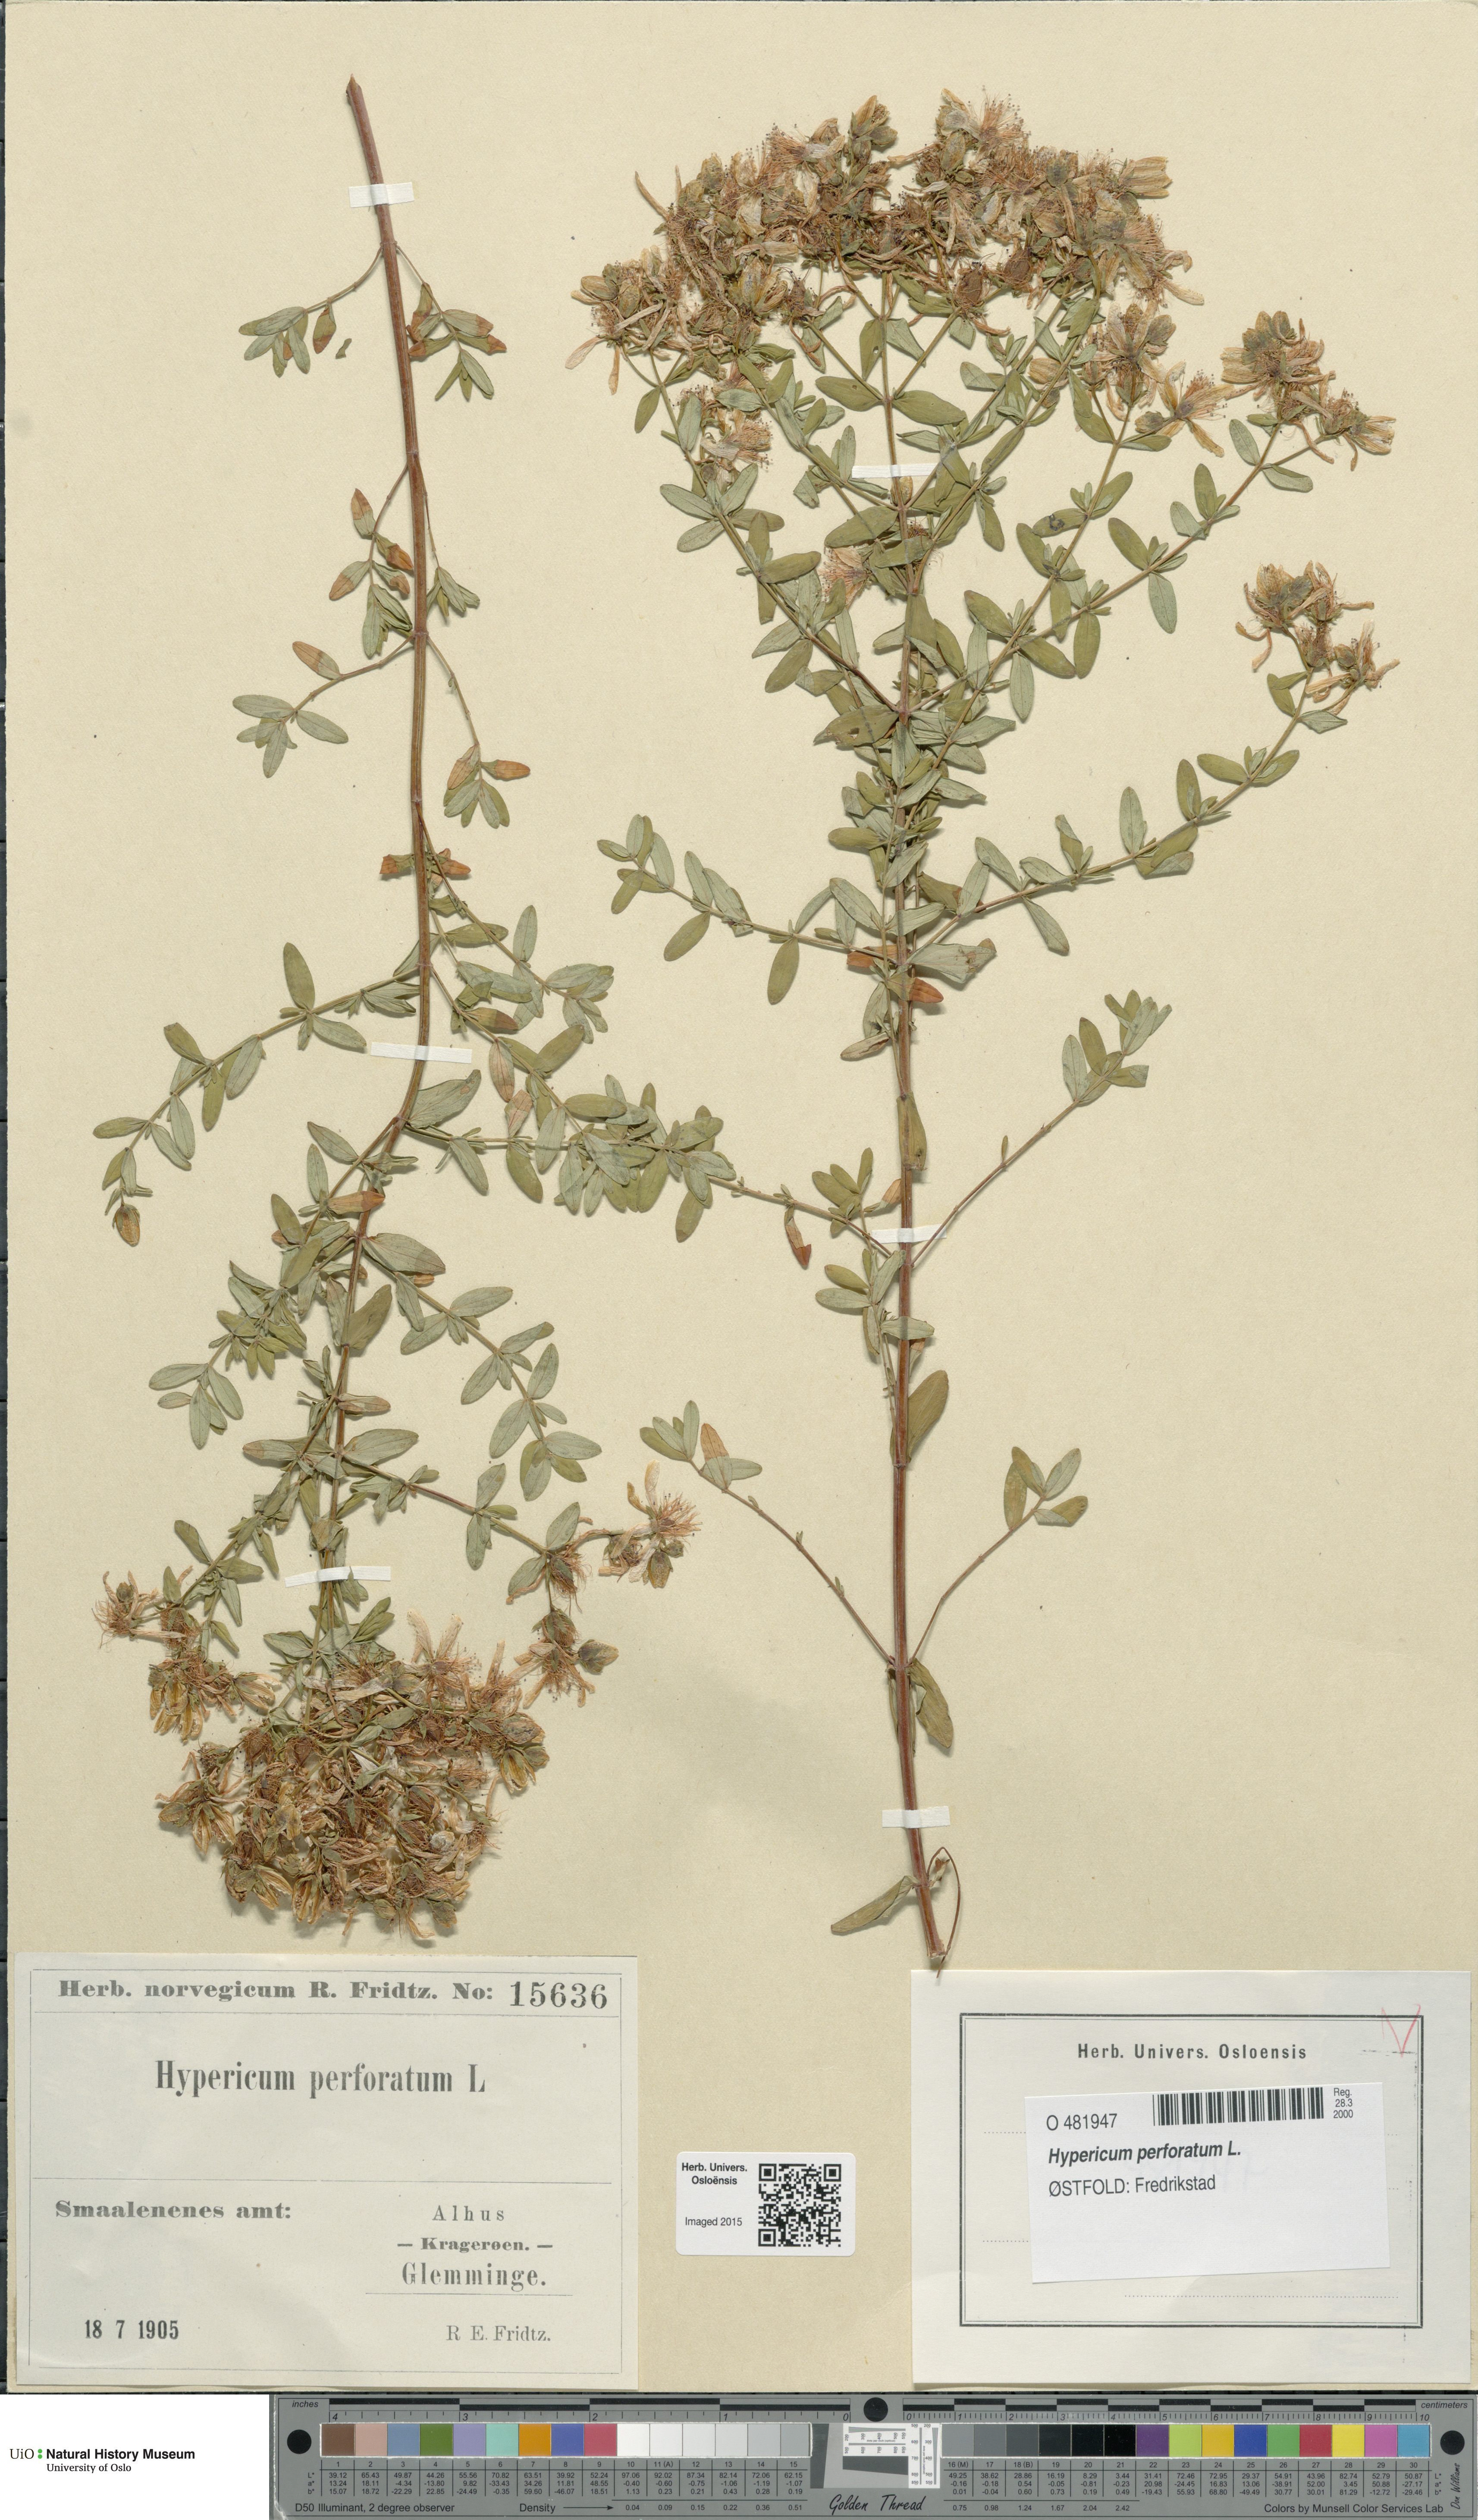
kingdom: Plantae
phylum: Tracheophyta
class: Magnoliopsida
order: Malpighiales
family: Hypericaceae
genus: Hypericum
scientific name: Hypericum perforatum
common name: Common st. johnswort
